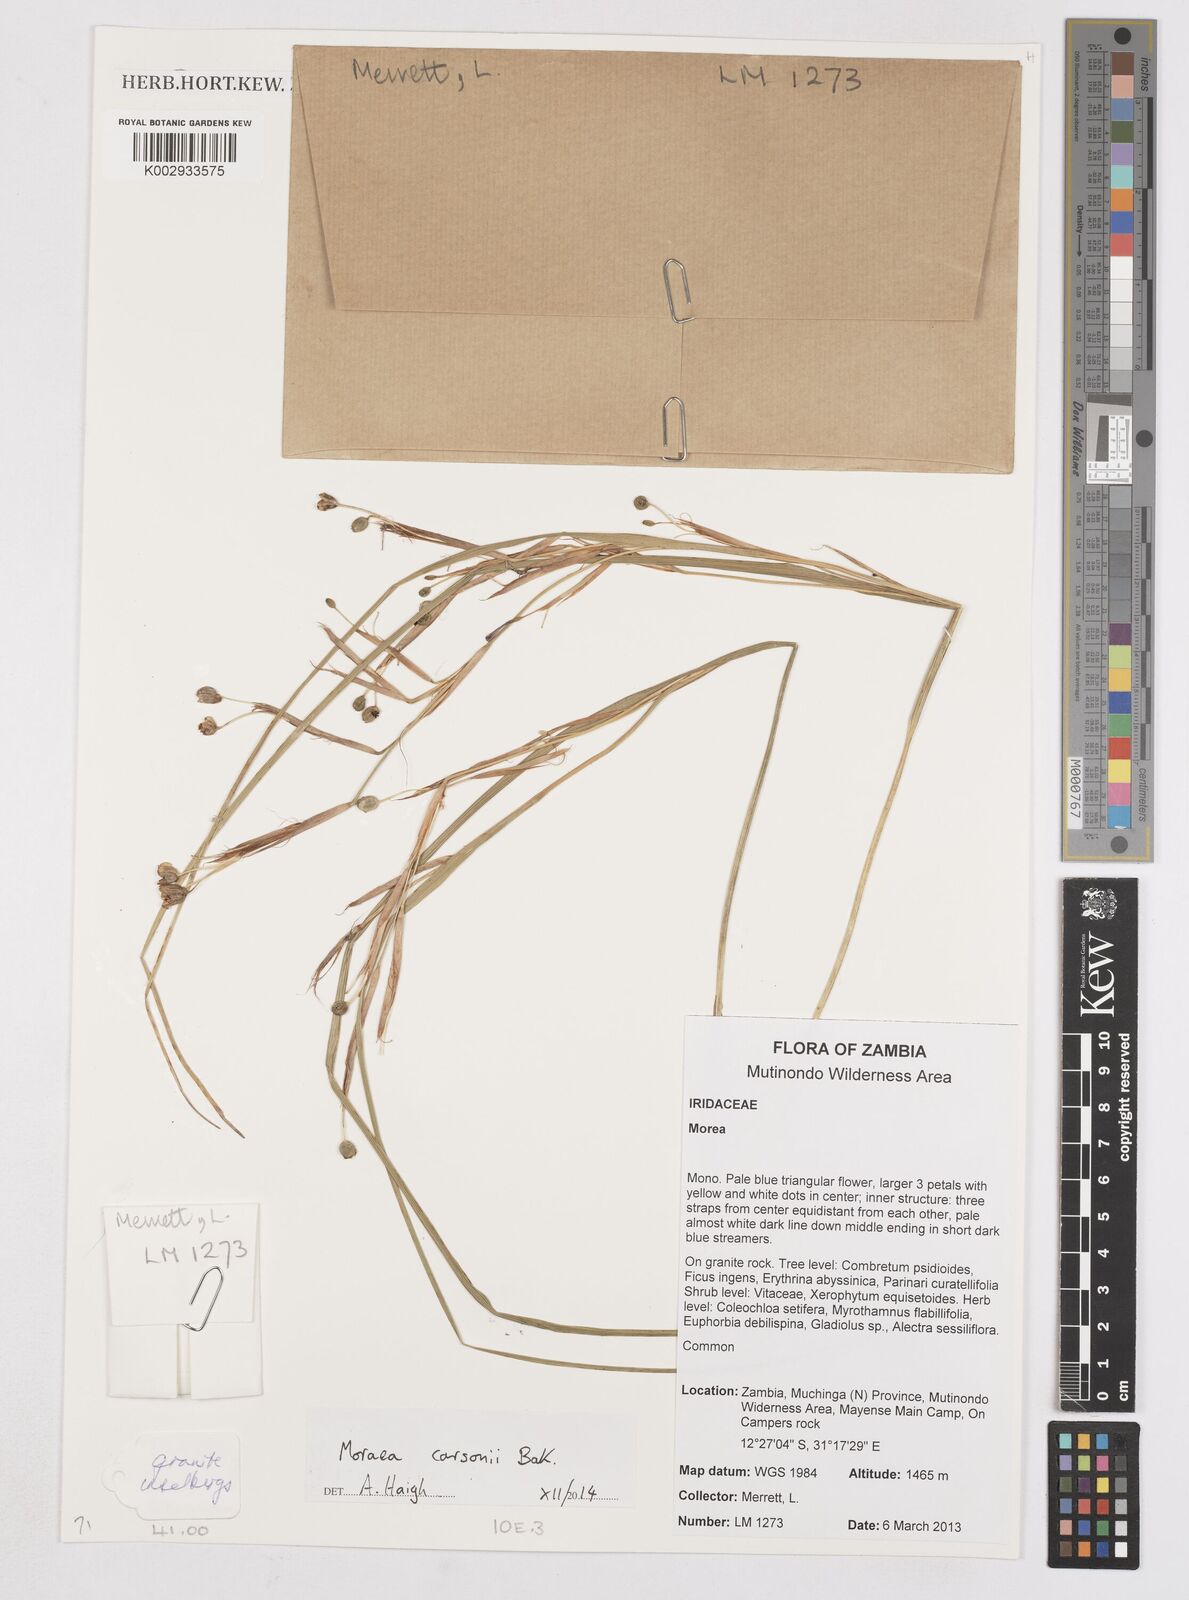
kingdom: Plantae
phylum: Tracheophyta
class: Liliopsida
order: Asparagales
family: Iridaceae
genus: Moraea
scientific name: Moraea carsonii
